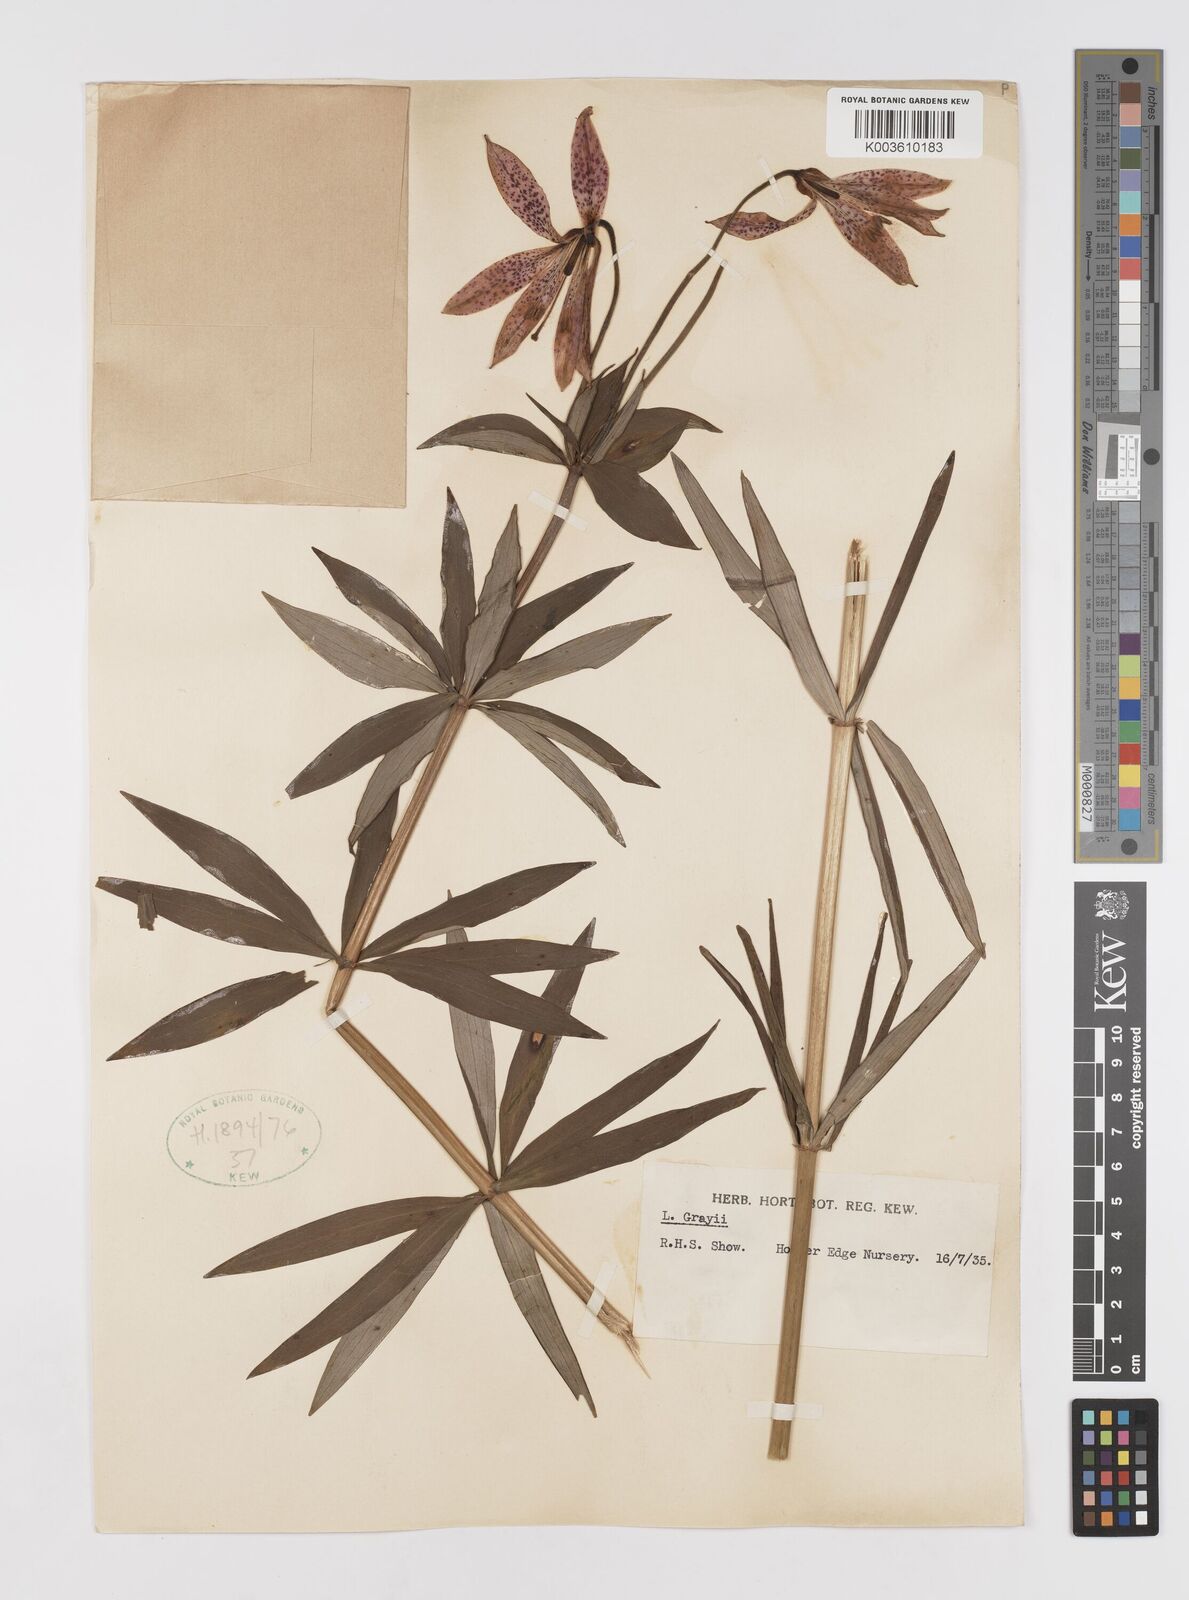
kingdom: Plantae
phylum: Tracheophyta
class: Liliopsida
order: Liliales
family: Liliaceae
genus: Lilium
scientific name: Lilium grayi
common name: Gray's lily
